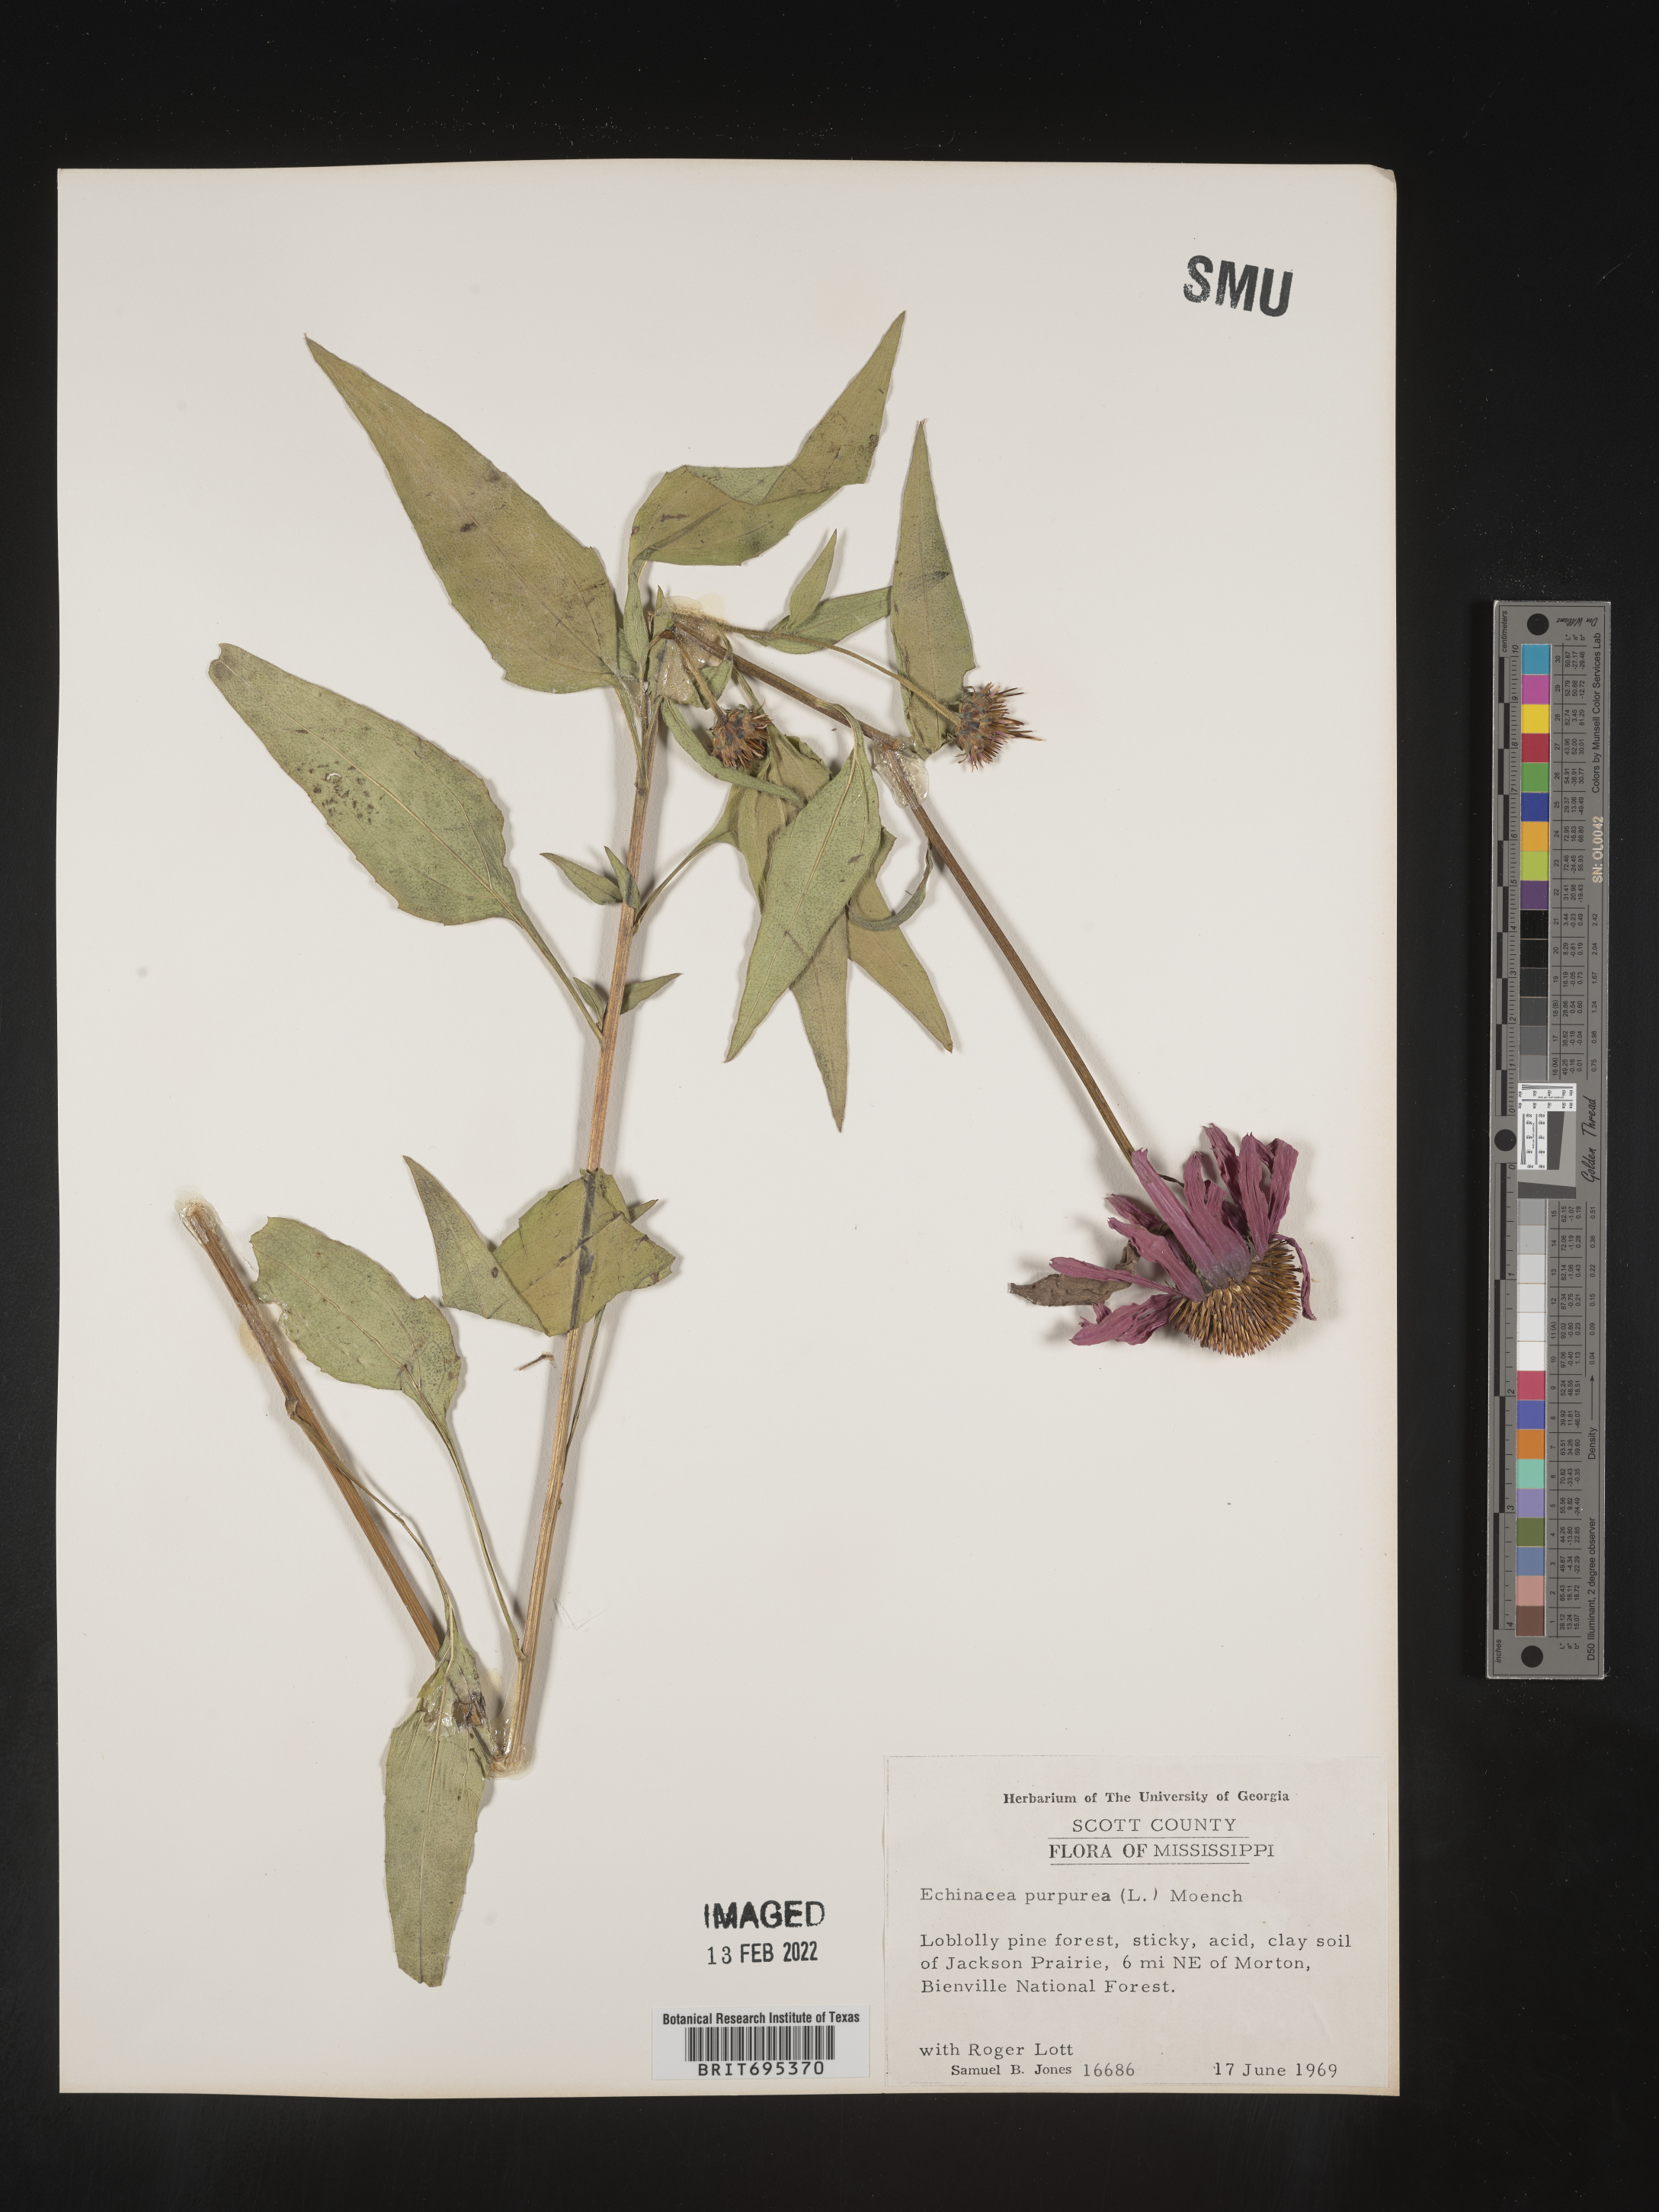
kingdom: Plantae
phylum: Tracheophyta
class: Magnoliopsida
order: Asterales
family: Asteraceae
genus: Echinacea
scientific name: Echinacea purpurea
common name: Broad-leaved purple coneflower
